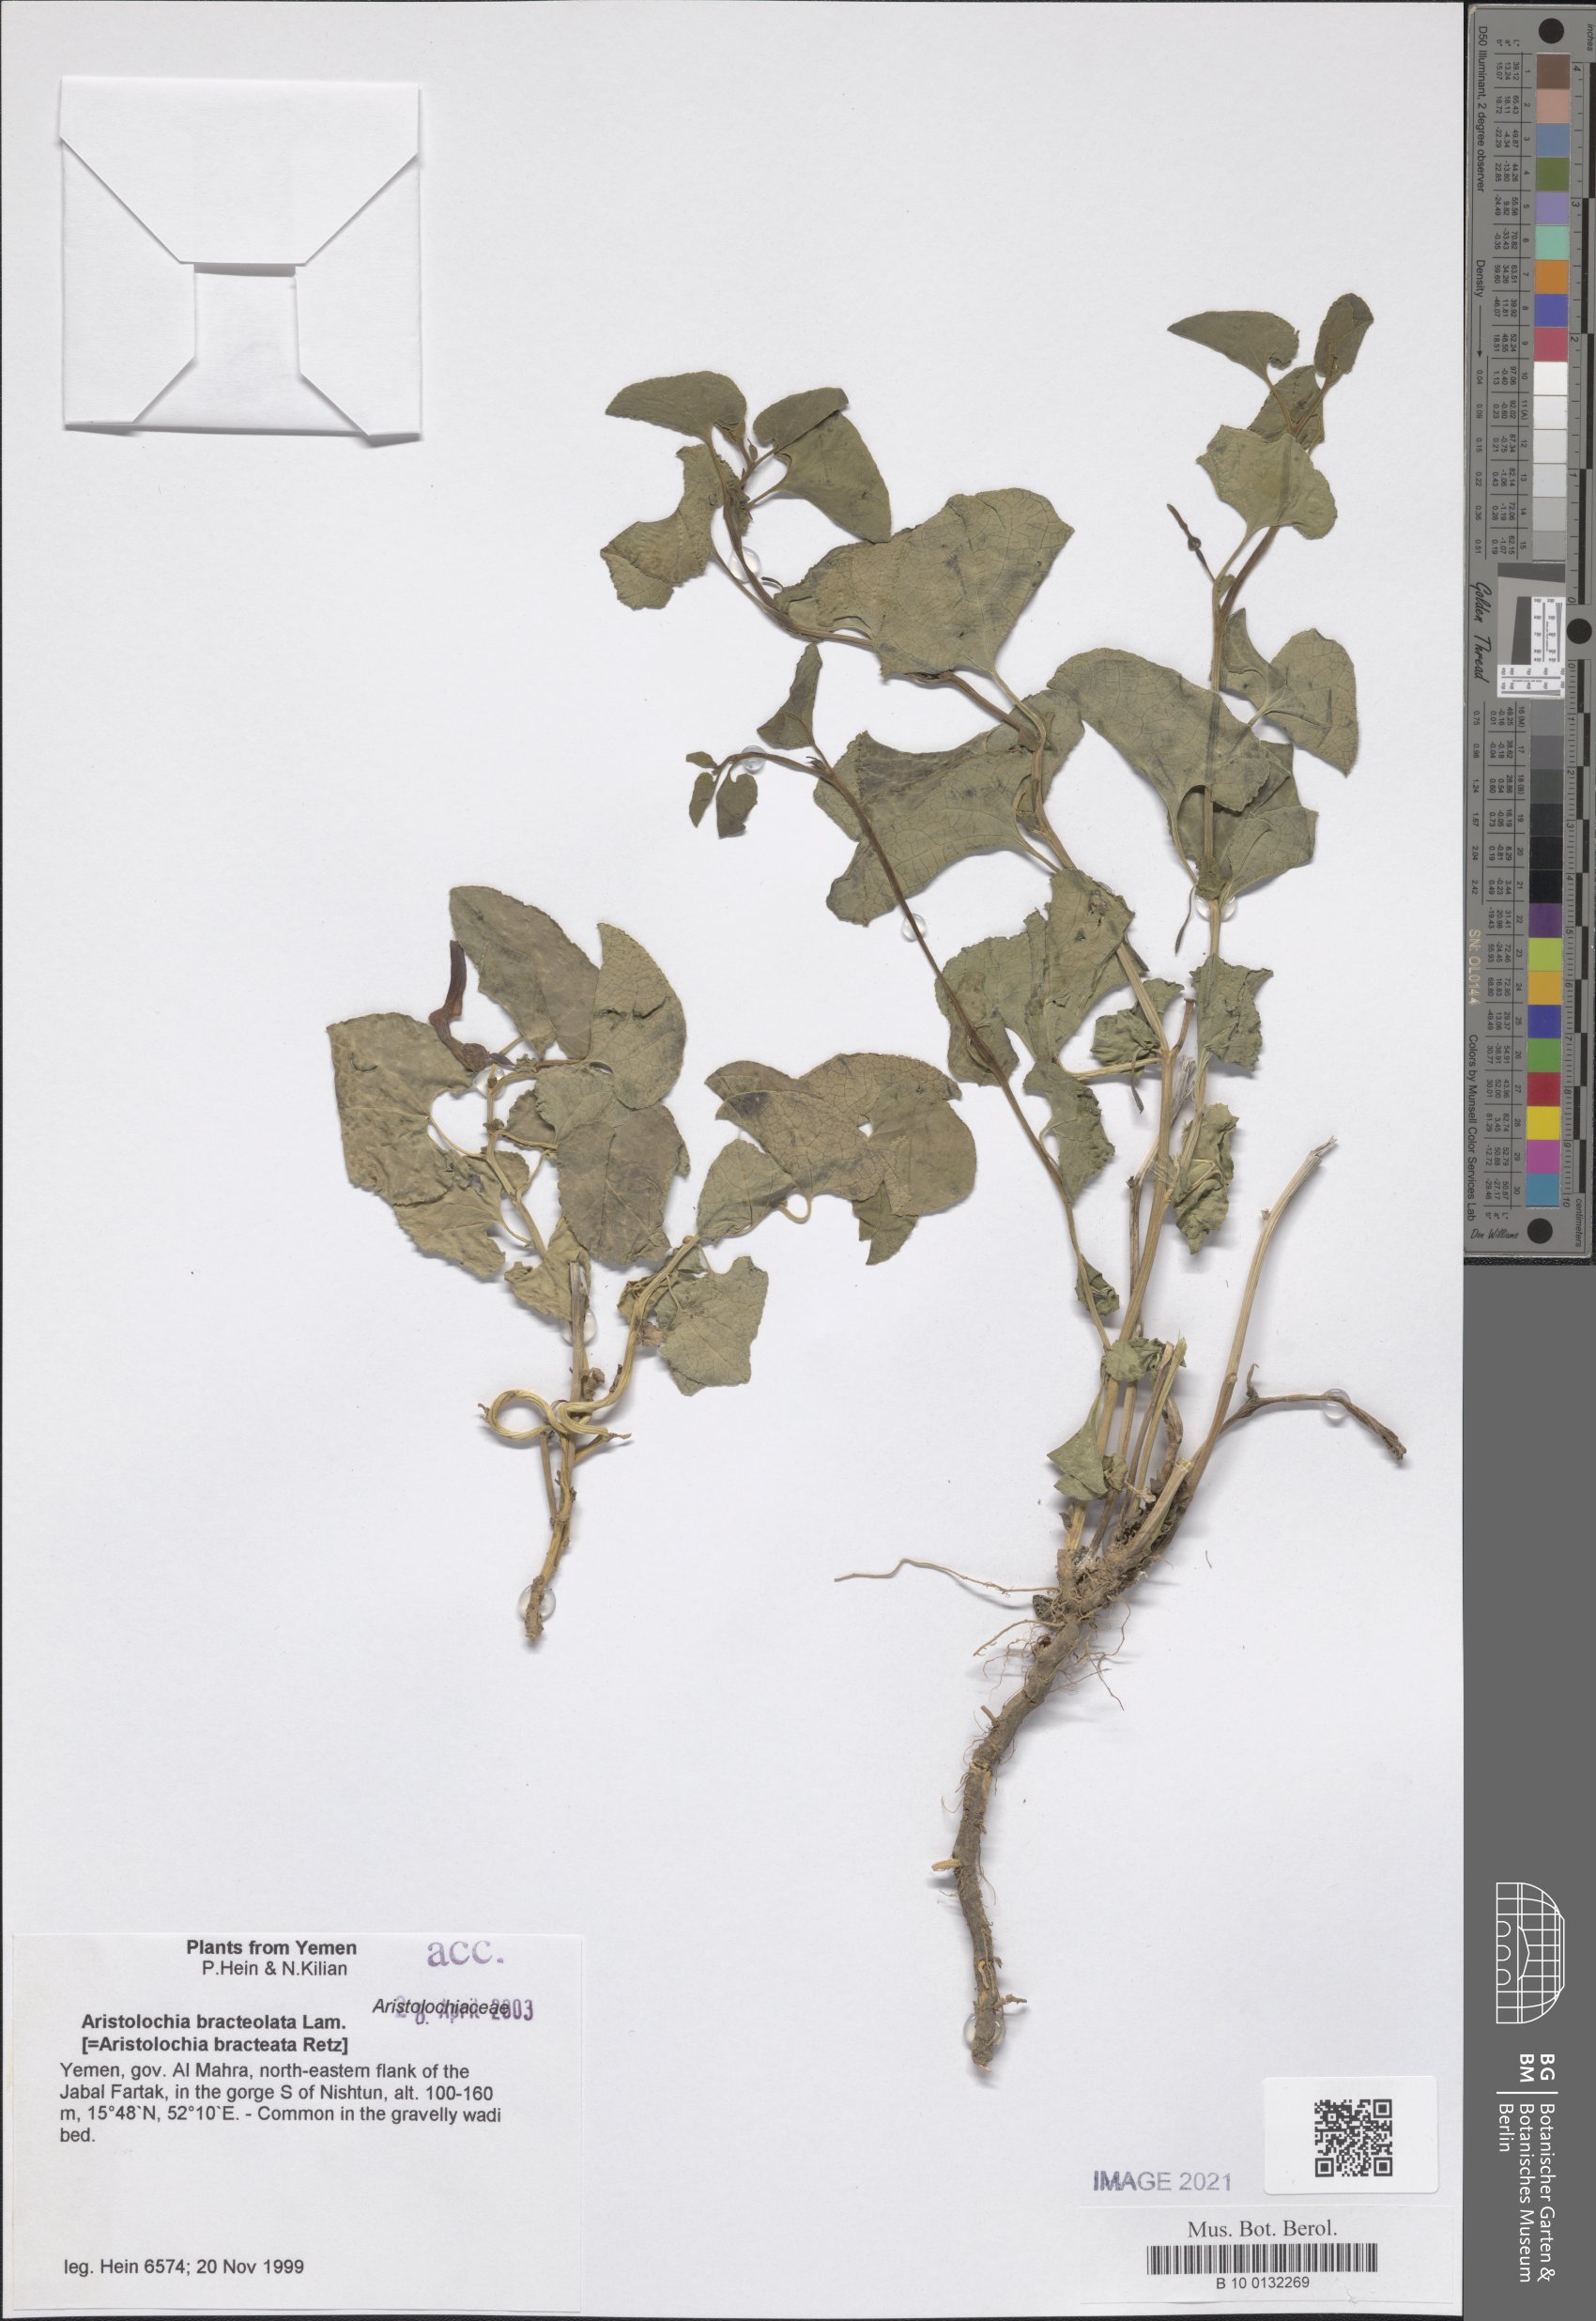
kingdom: Plantae
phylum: Tracheophyta
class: Magnoliopsida
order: Piperales
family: Aristolochiaceae
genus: Aristolochia
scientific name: Aristolochia bracteolata
